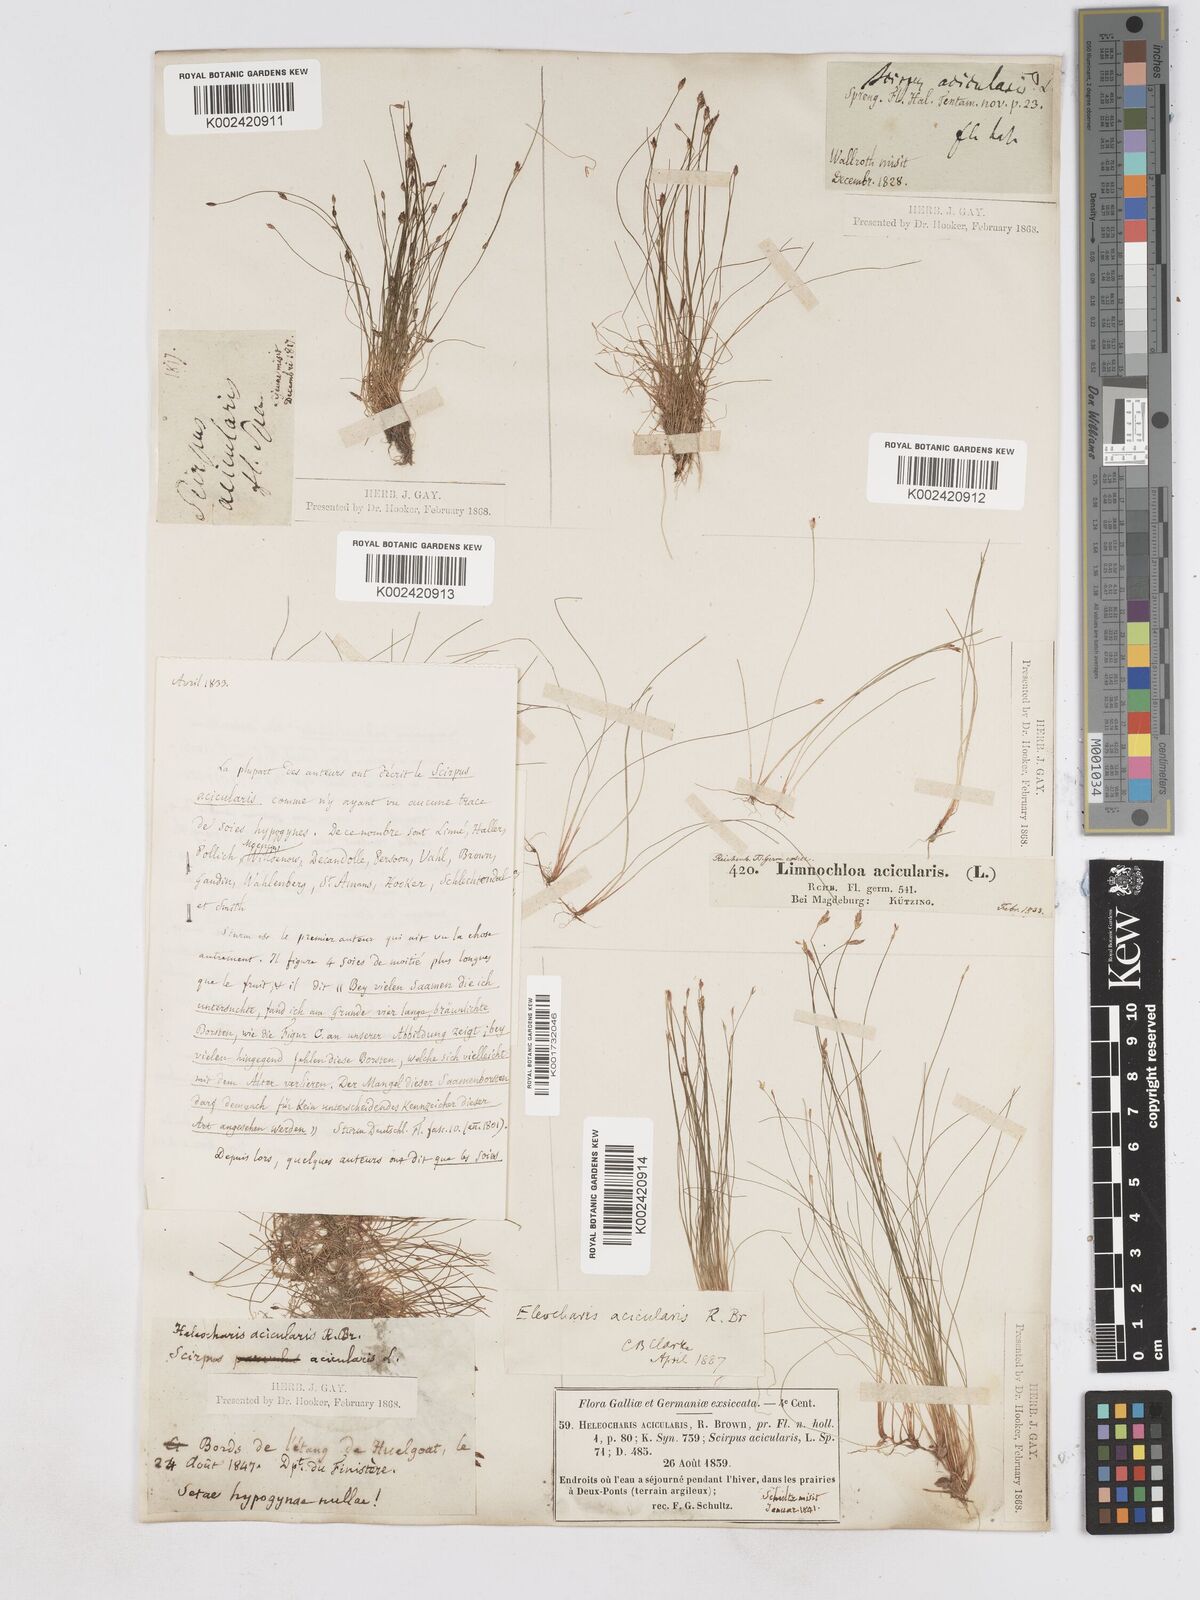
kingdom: Plantae
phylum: Tracheophyta
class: Liliopsida
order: Poales
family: Cyperaceae
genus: Eleocharis
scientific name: Eleocharis acicularis
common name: Needle spike-rush
